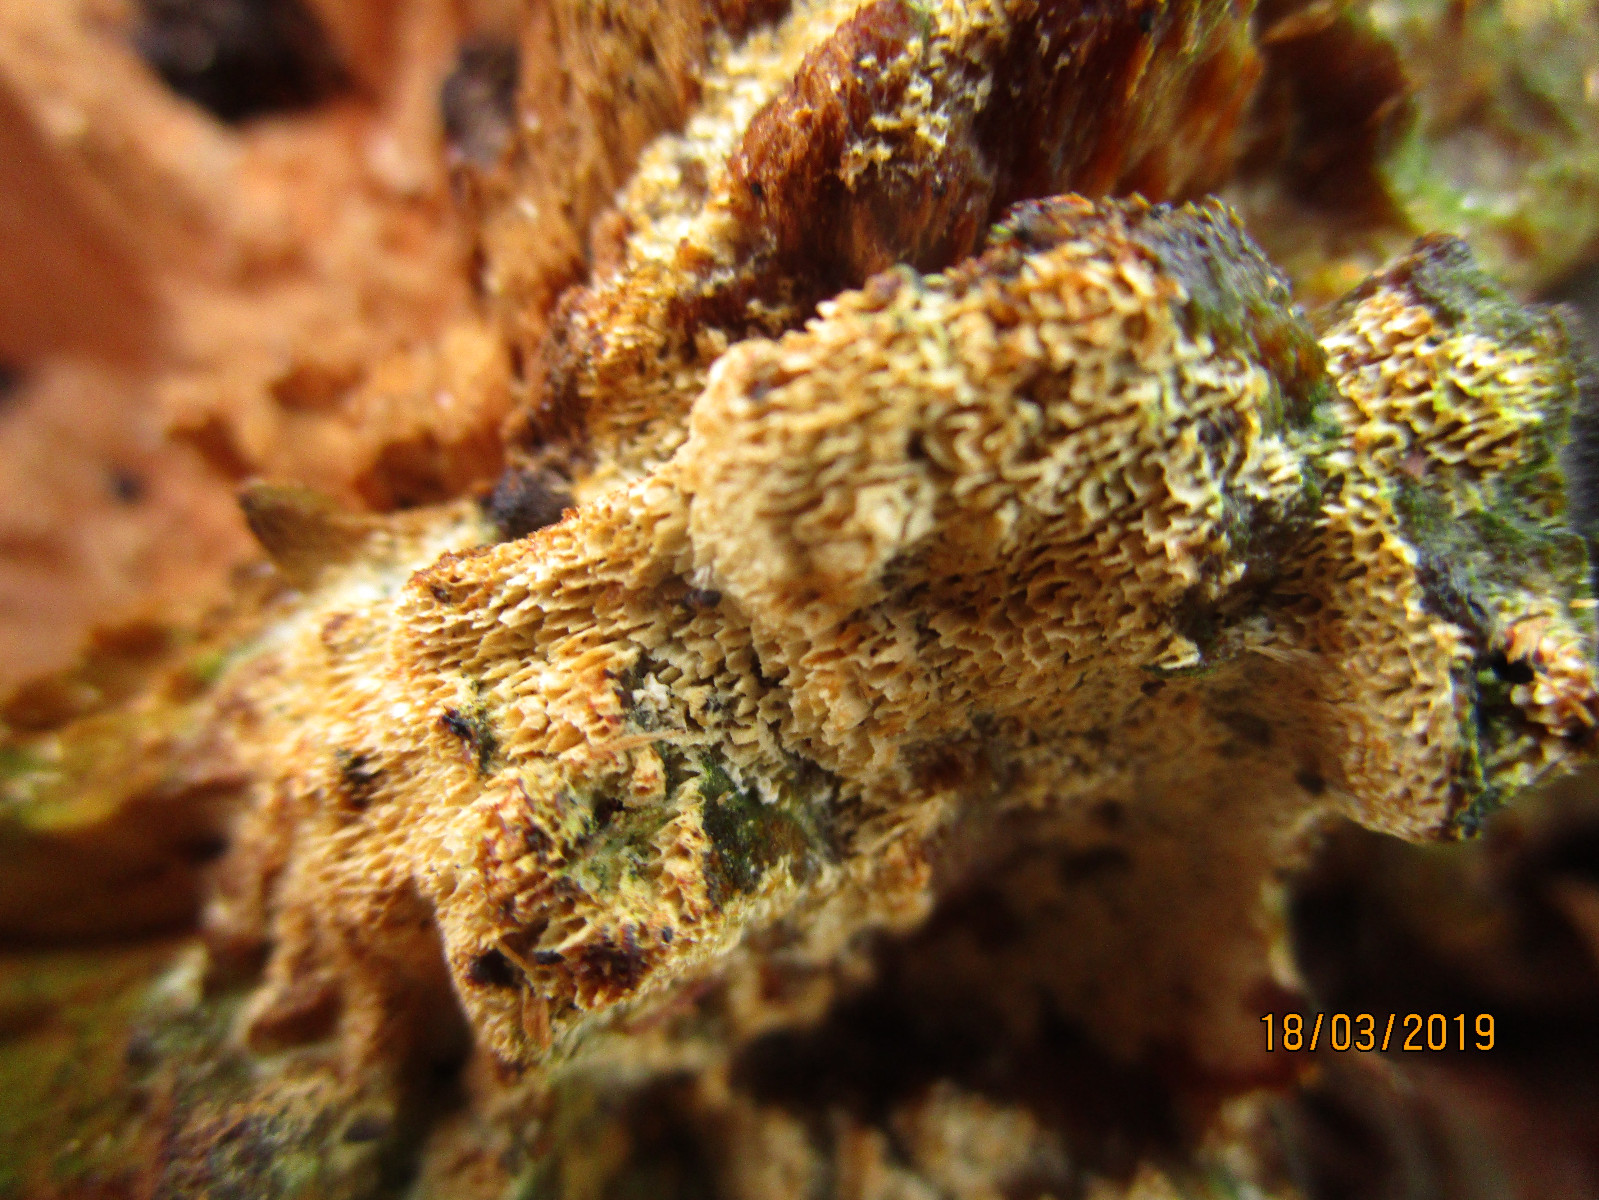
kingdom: Fungi
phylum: Basidiomycota
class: Agaricomycetes
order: Polyporales
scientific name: Polyporales
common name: poresvampordenen
